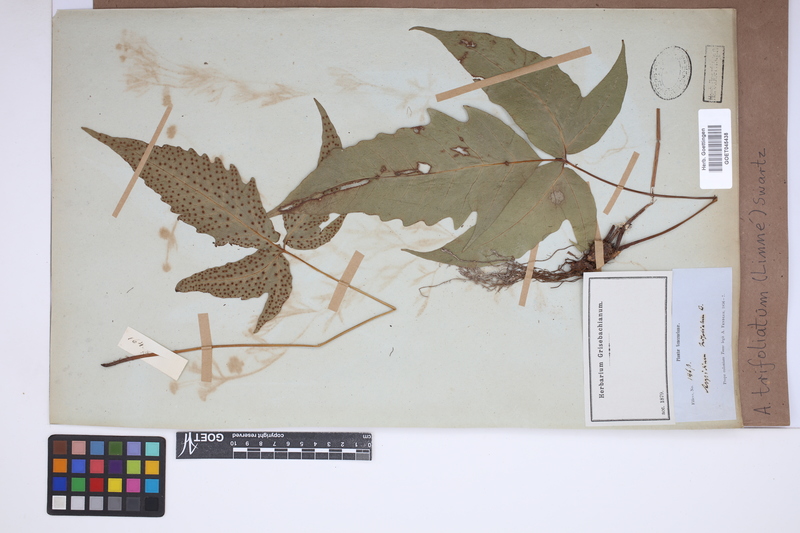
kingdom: Plantae
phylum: Tracheophyta
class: Polypodiopsida
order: Polypodiales
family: Tectariaceae
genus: Tectaria
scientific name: Tectaria trifoliata
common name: Threeleaf halberd fern
